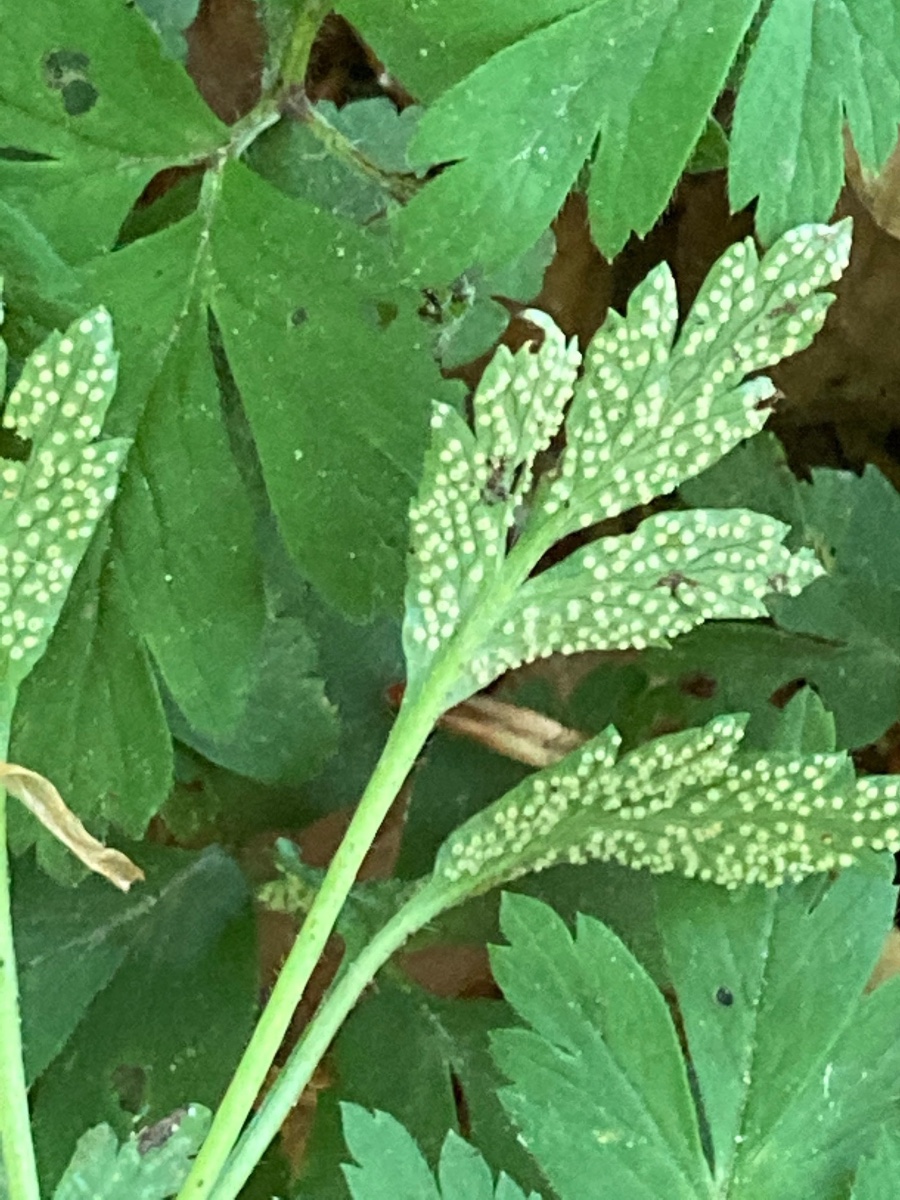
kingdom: Fungi
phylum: Basidiomycota
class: Pucciniomycetes
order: Pucciniales
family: Ochropsoraceae
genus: Ochropsora
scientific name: Ochropsora ariae
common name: anemone-okkerpletrust
